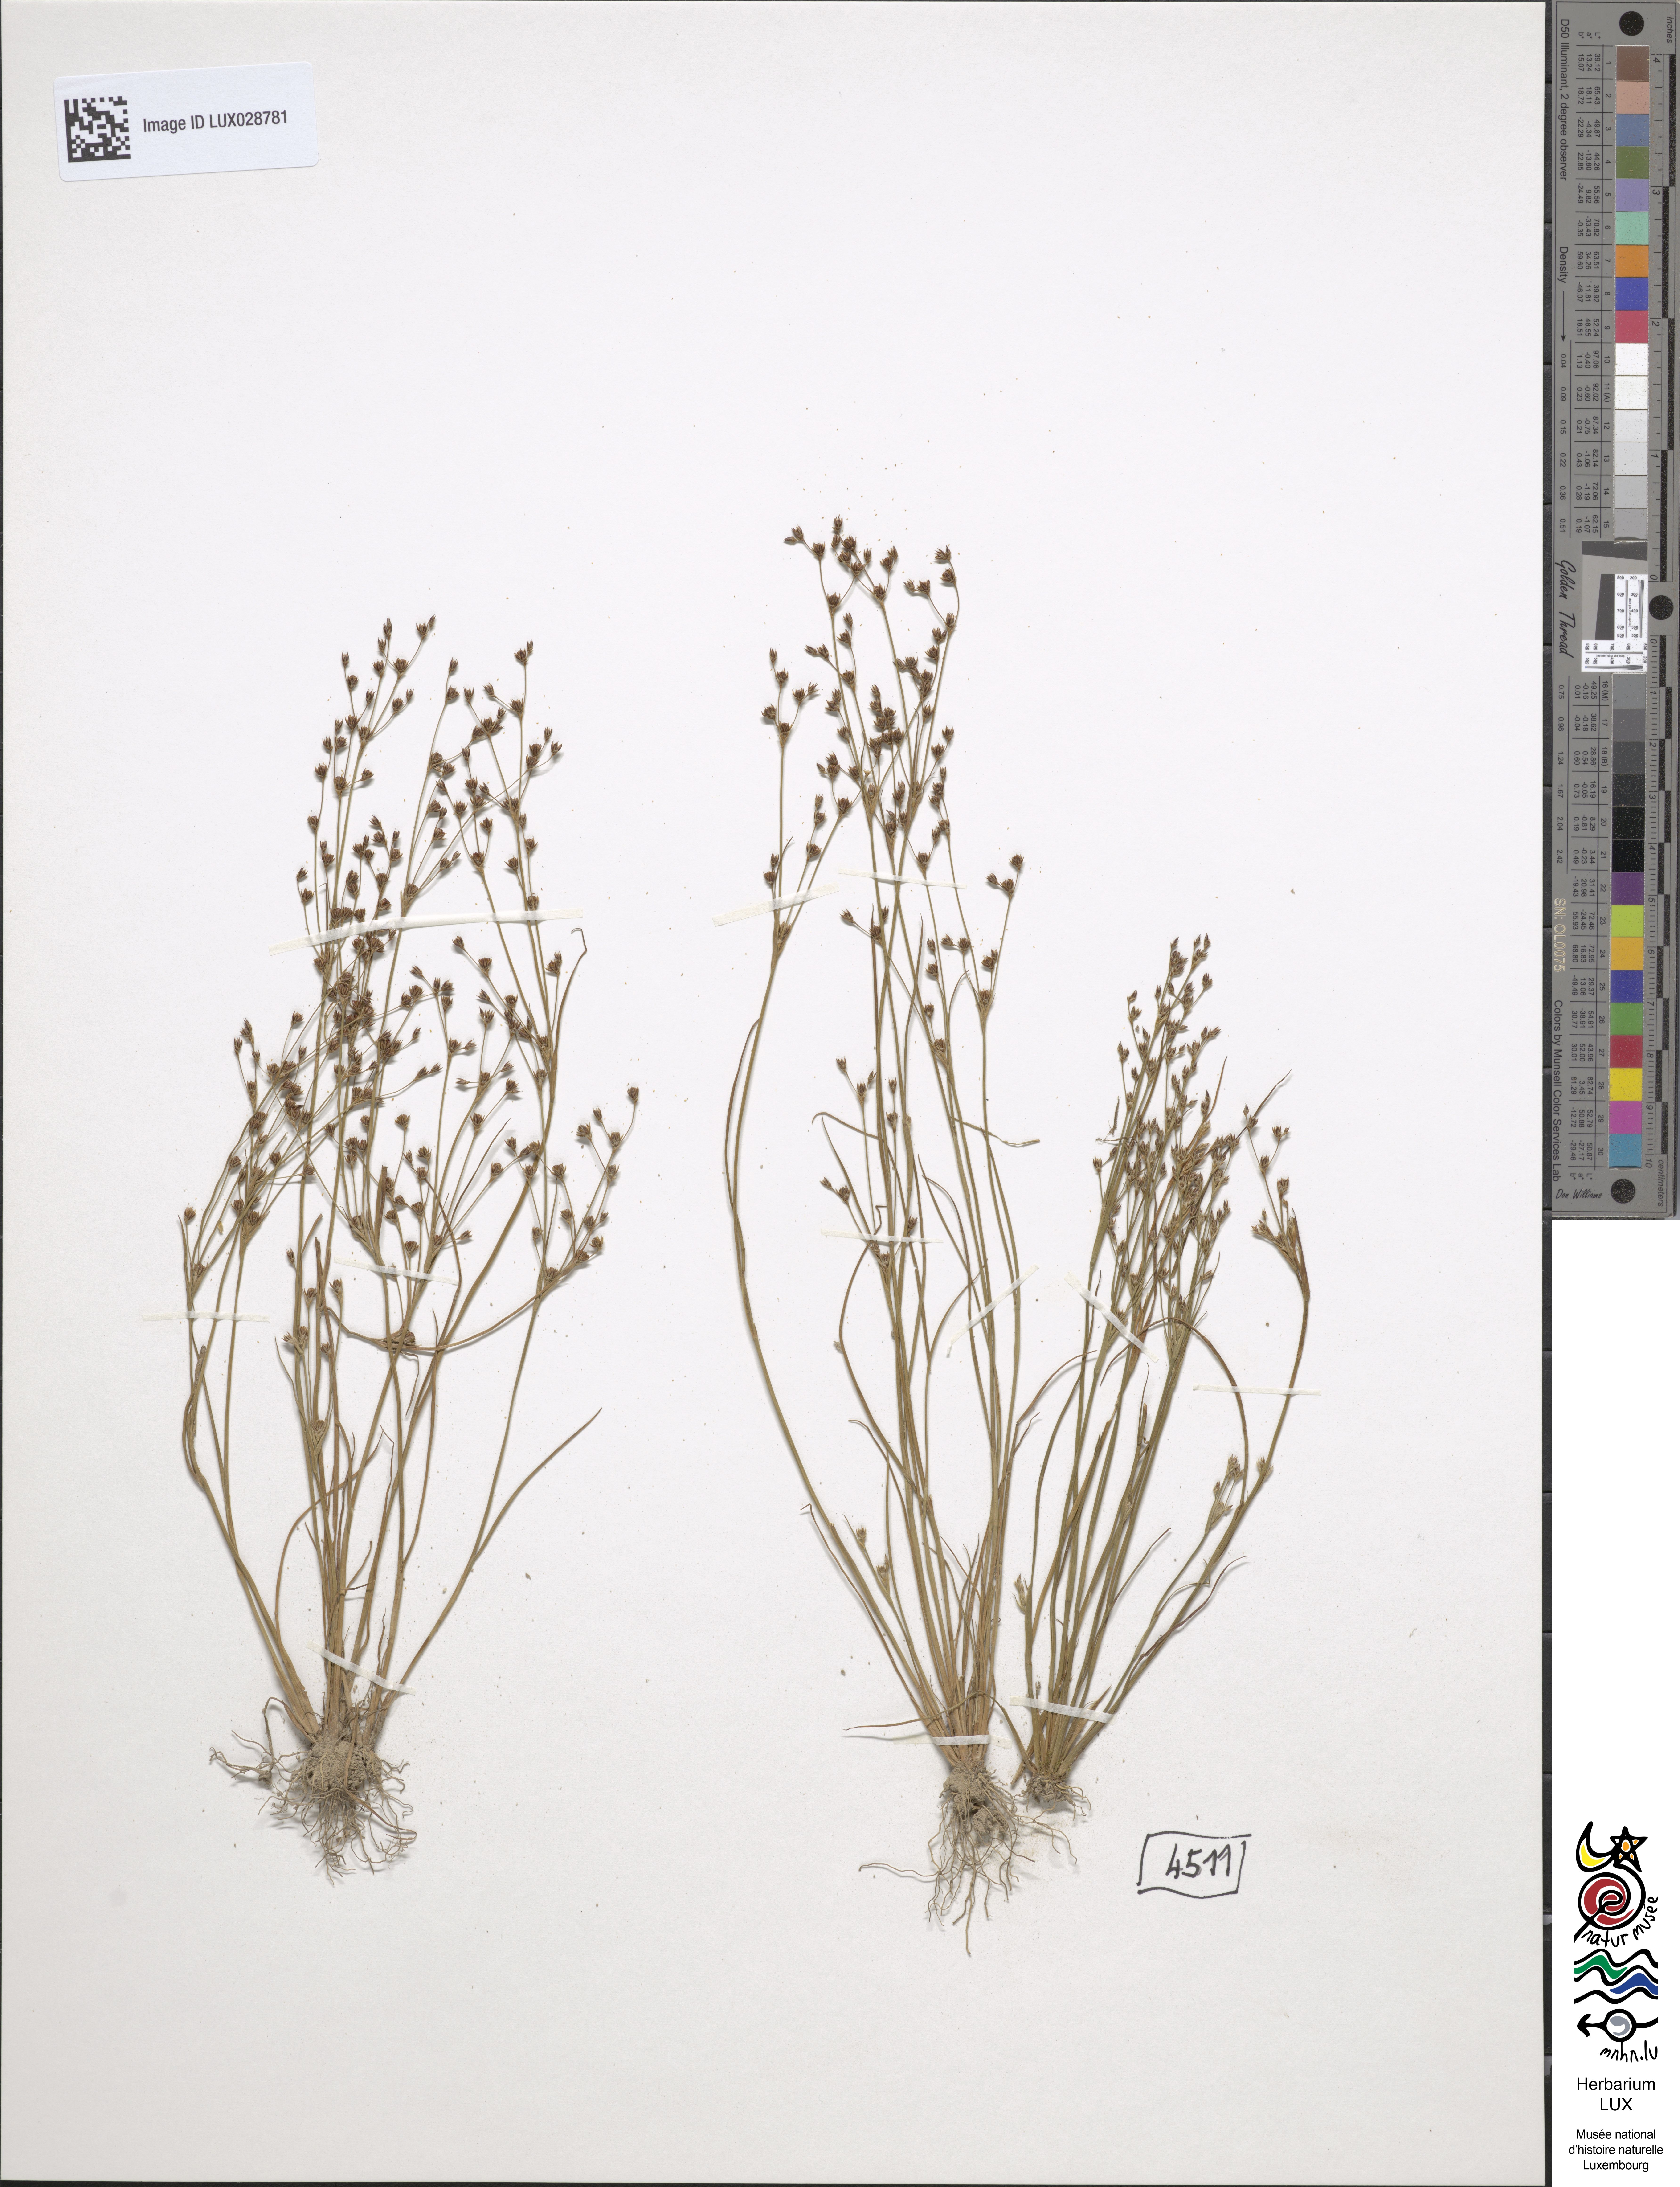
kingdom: Plantae
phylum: Tracheophyta
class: Liliopsida
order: Poales
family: Juncaceae
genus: Juncus
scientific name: Juncus tenageia
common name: Sand rush
